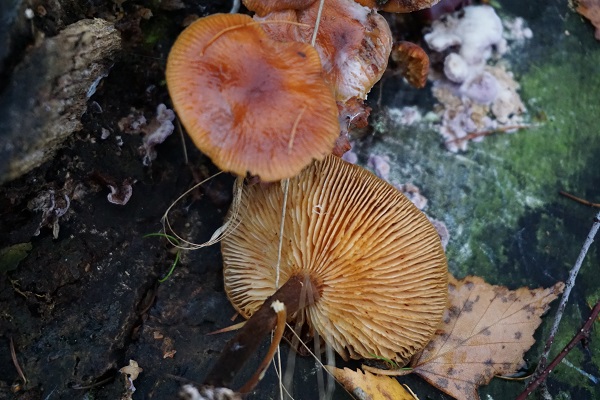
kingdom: Fungi
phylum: Basidiomycota
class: Agaricomycetes
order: Agaricales
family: Physalacriaceae
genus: Flammulina
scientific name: Flammulina velutipes
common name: gul fløjlsfod
